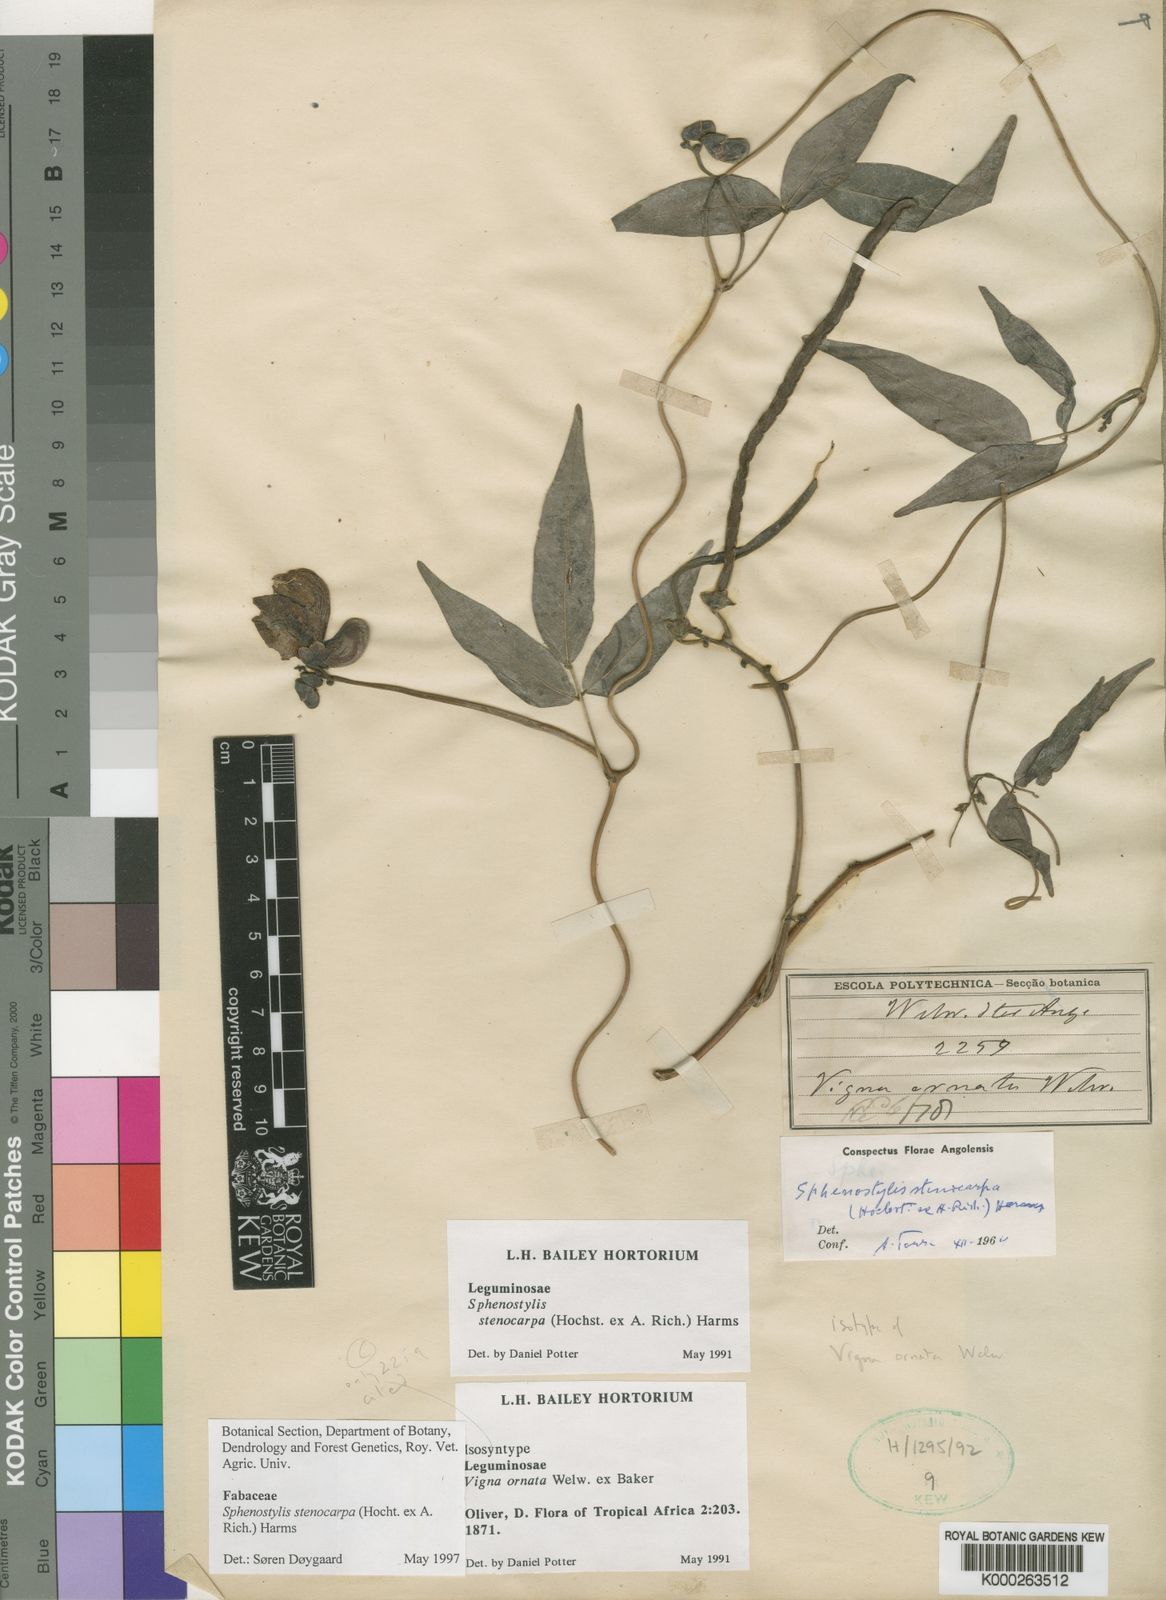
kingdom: Plantae
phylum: Tracheophyta
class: Magnoliopsida
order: Fabales
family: Fabaceae
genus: Sphenostylis
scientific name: Sphenostylis stenocarpa
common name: Yam-pea
